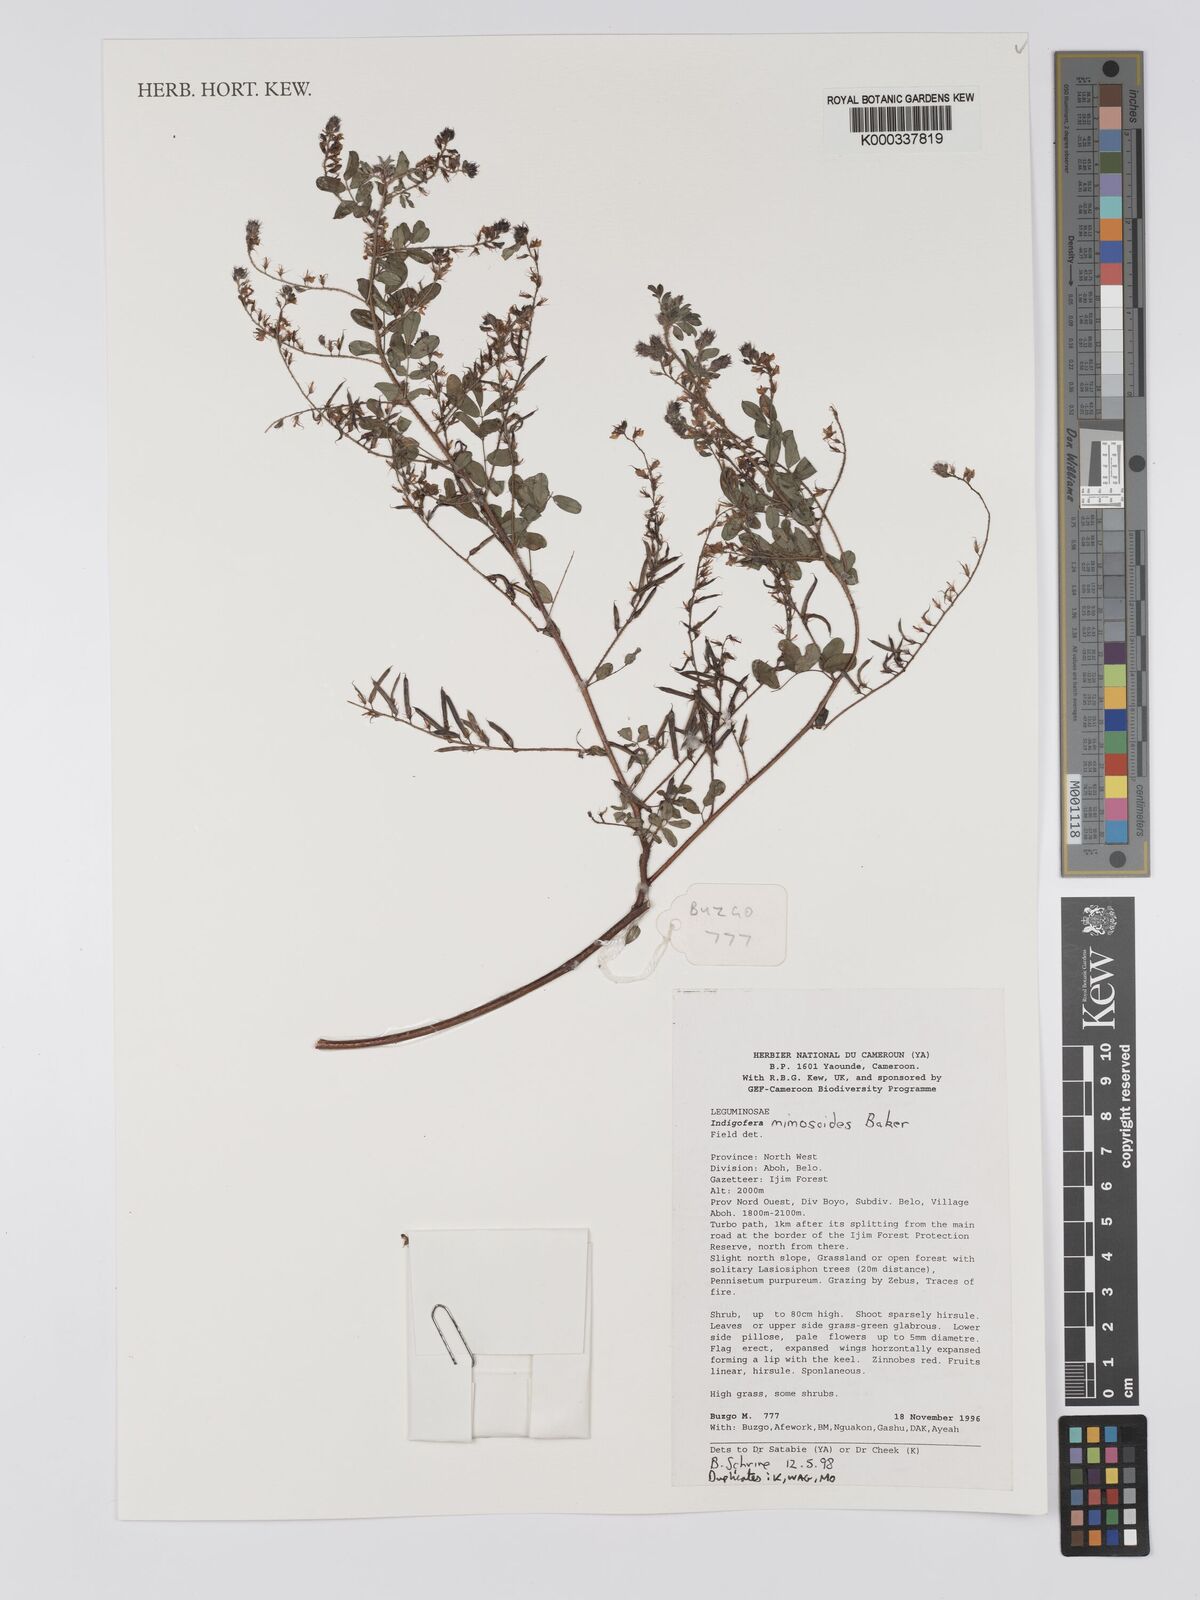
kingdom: Plantae
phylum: Tracheophyta
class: Magnoliopsida
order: Fabales
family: Fabaceae
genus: Indigofera
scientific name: Indigofera mimosoides
